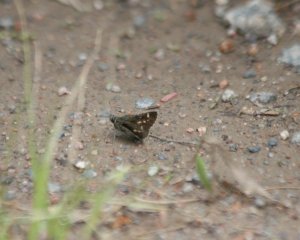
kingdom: Animalia
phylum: Arthropoda
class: Insecta
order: Lepidoptera
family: Hesperiidae
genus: Mastor
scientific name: Mastor hegon
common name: Pepper and Salt Skipper
